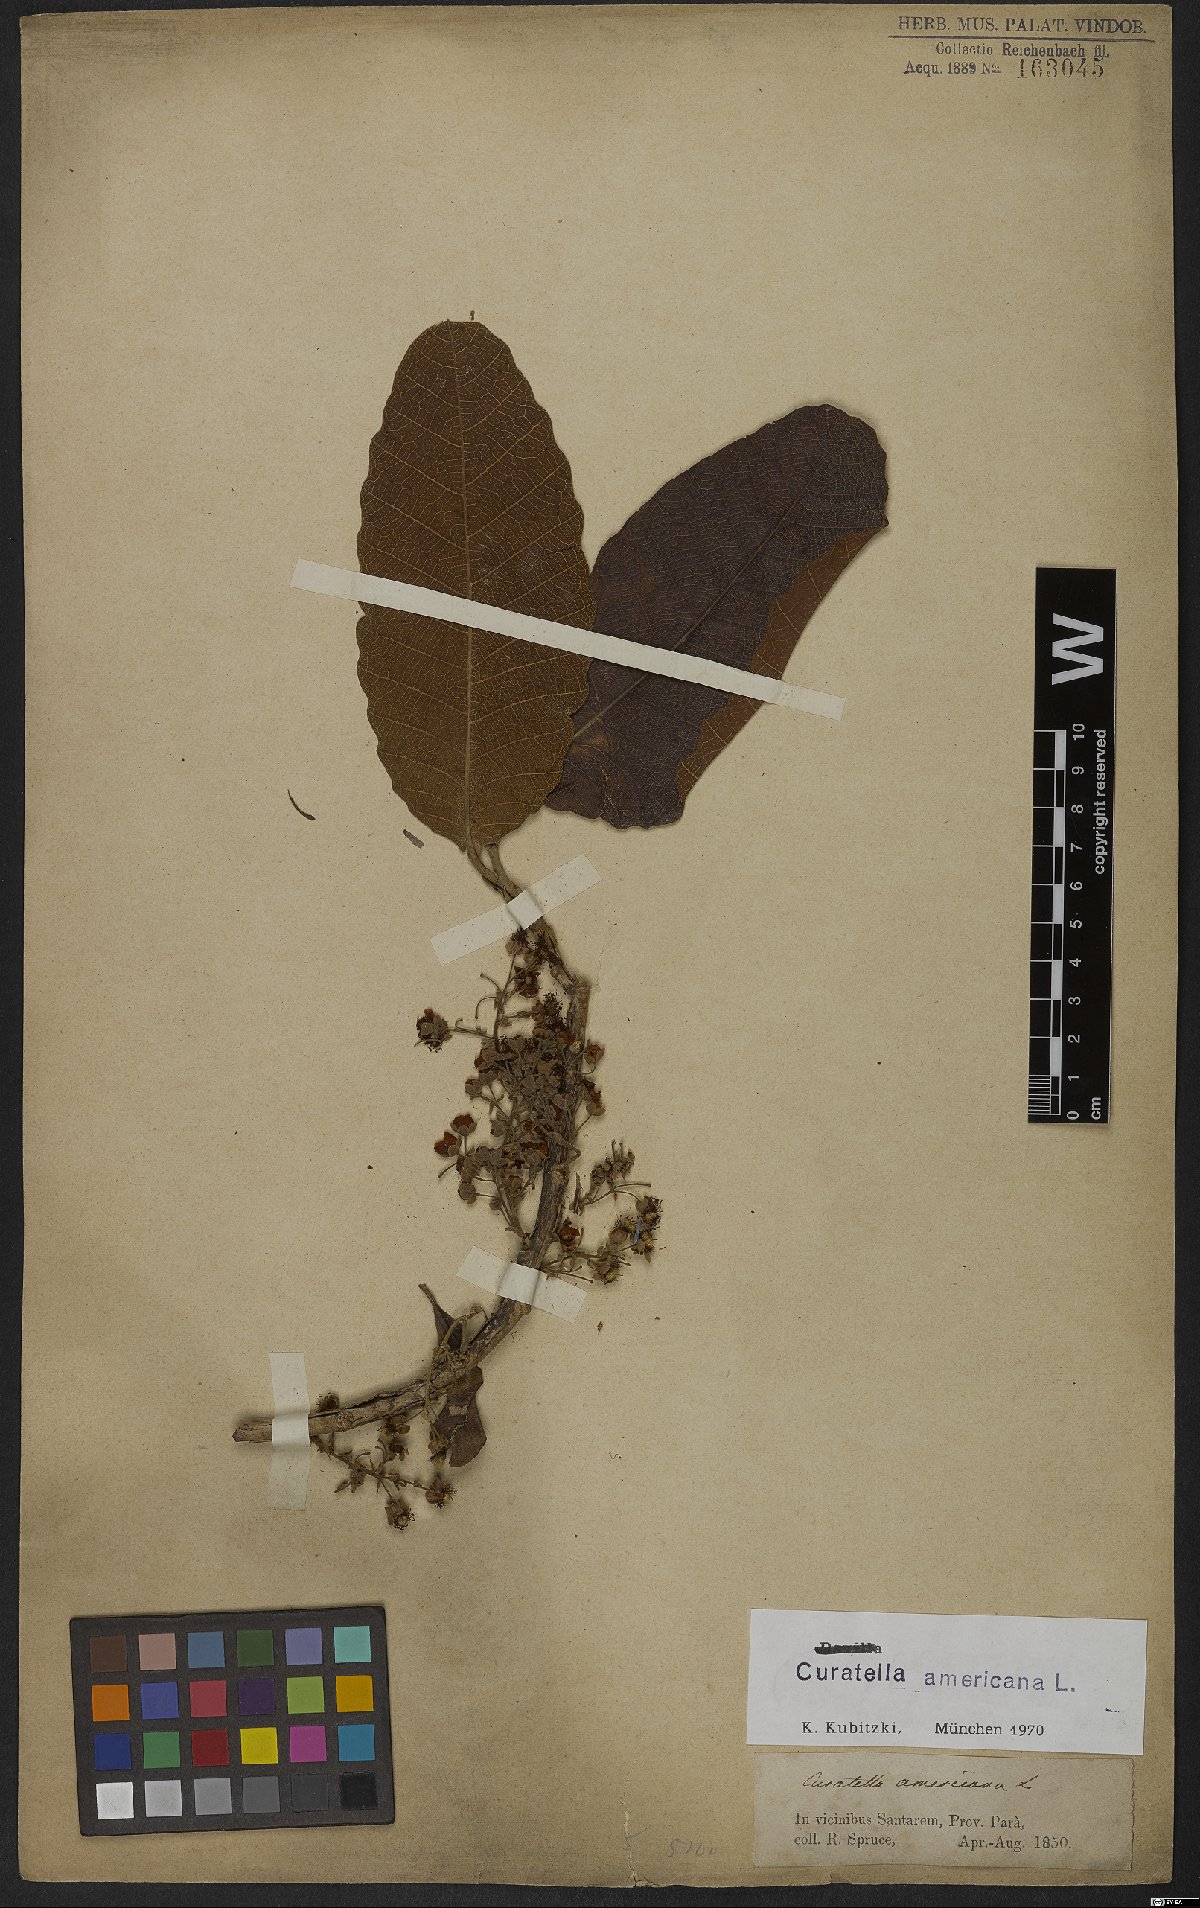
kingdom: Plantae
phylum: Tracheophyta
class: Magnoliopsida
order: Dilleniales
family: Dilleniaceae
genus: Curatella
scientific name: Curatella americana
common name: Sandpaper tree
